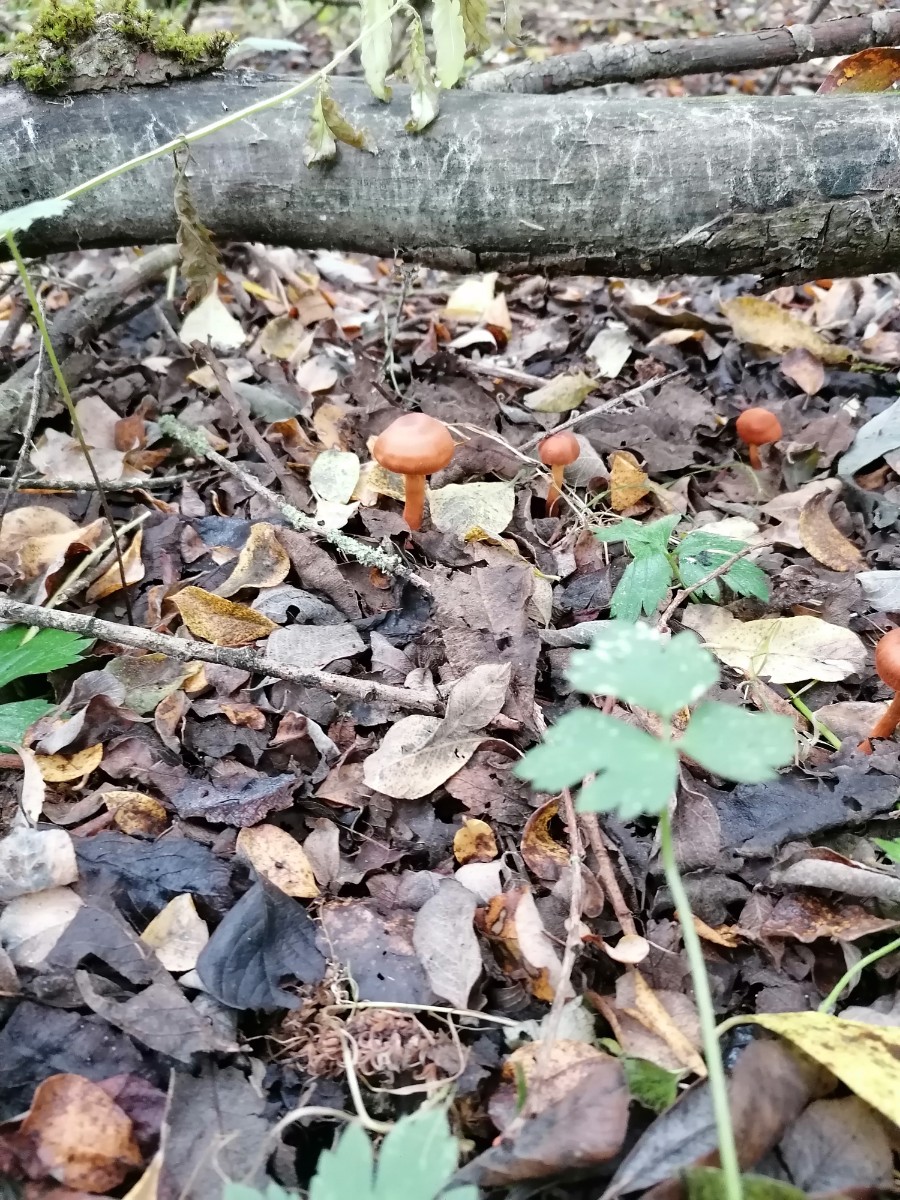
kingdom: Fungi
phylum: Basidiomycota
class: Agaricomycetes
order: Agaricales
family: Cortinariaceae
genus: Cortinarius
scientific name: Cortinarius uliginosus
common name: mose-slørhat
